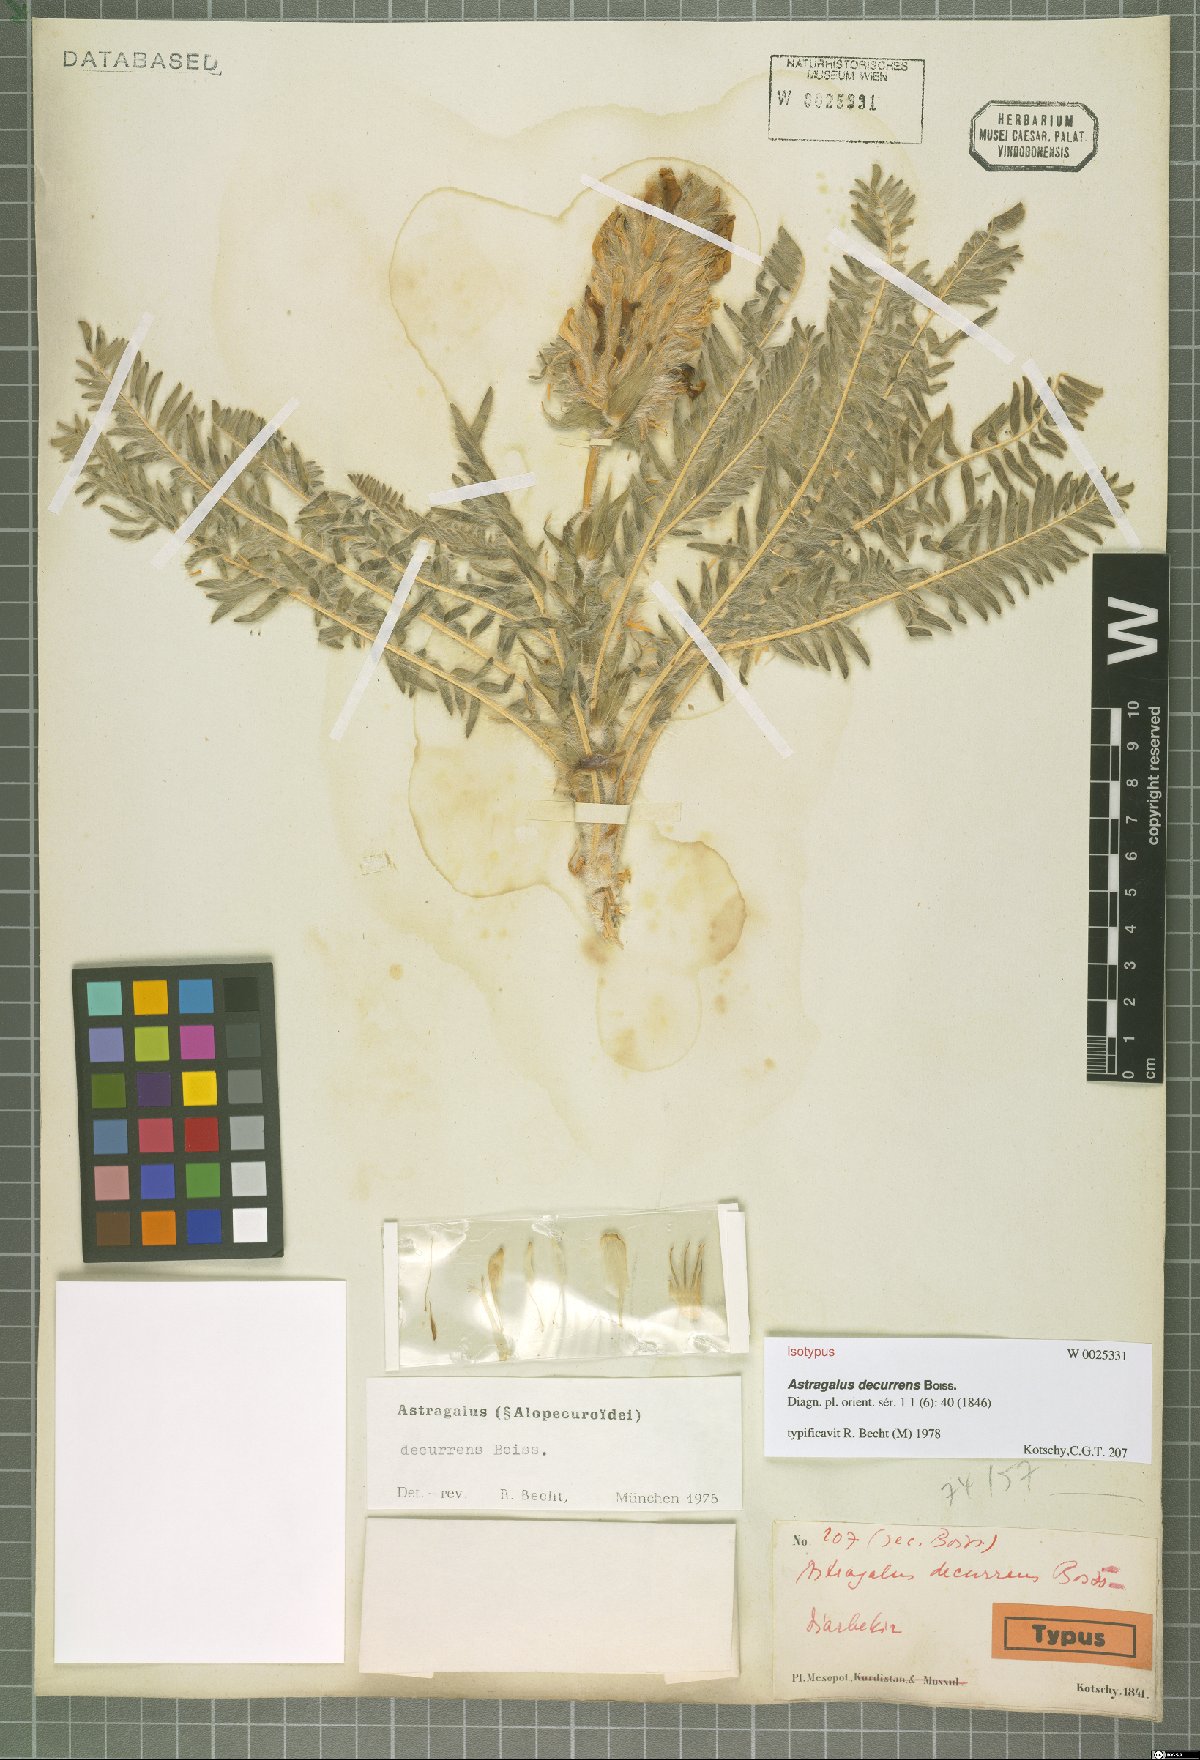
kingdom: Plantae
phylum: Tracheophyta
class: Magnoliopsida
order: Fabales
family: Fabaceae
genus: Astragalus
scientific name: Astragalus decurrens
